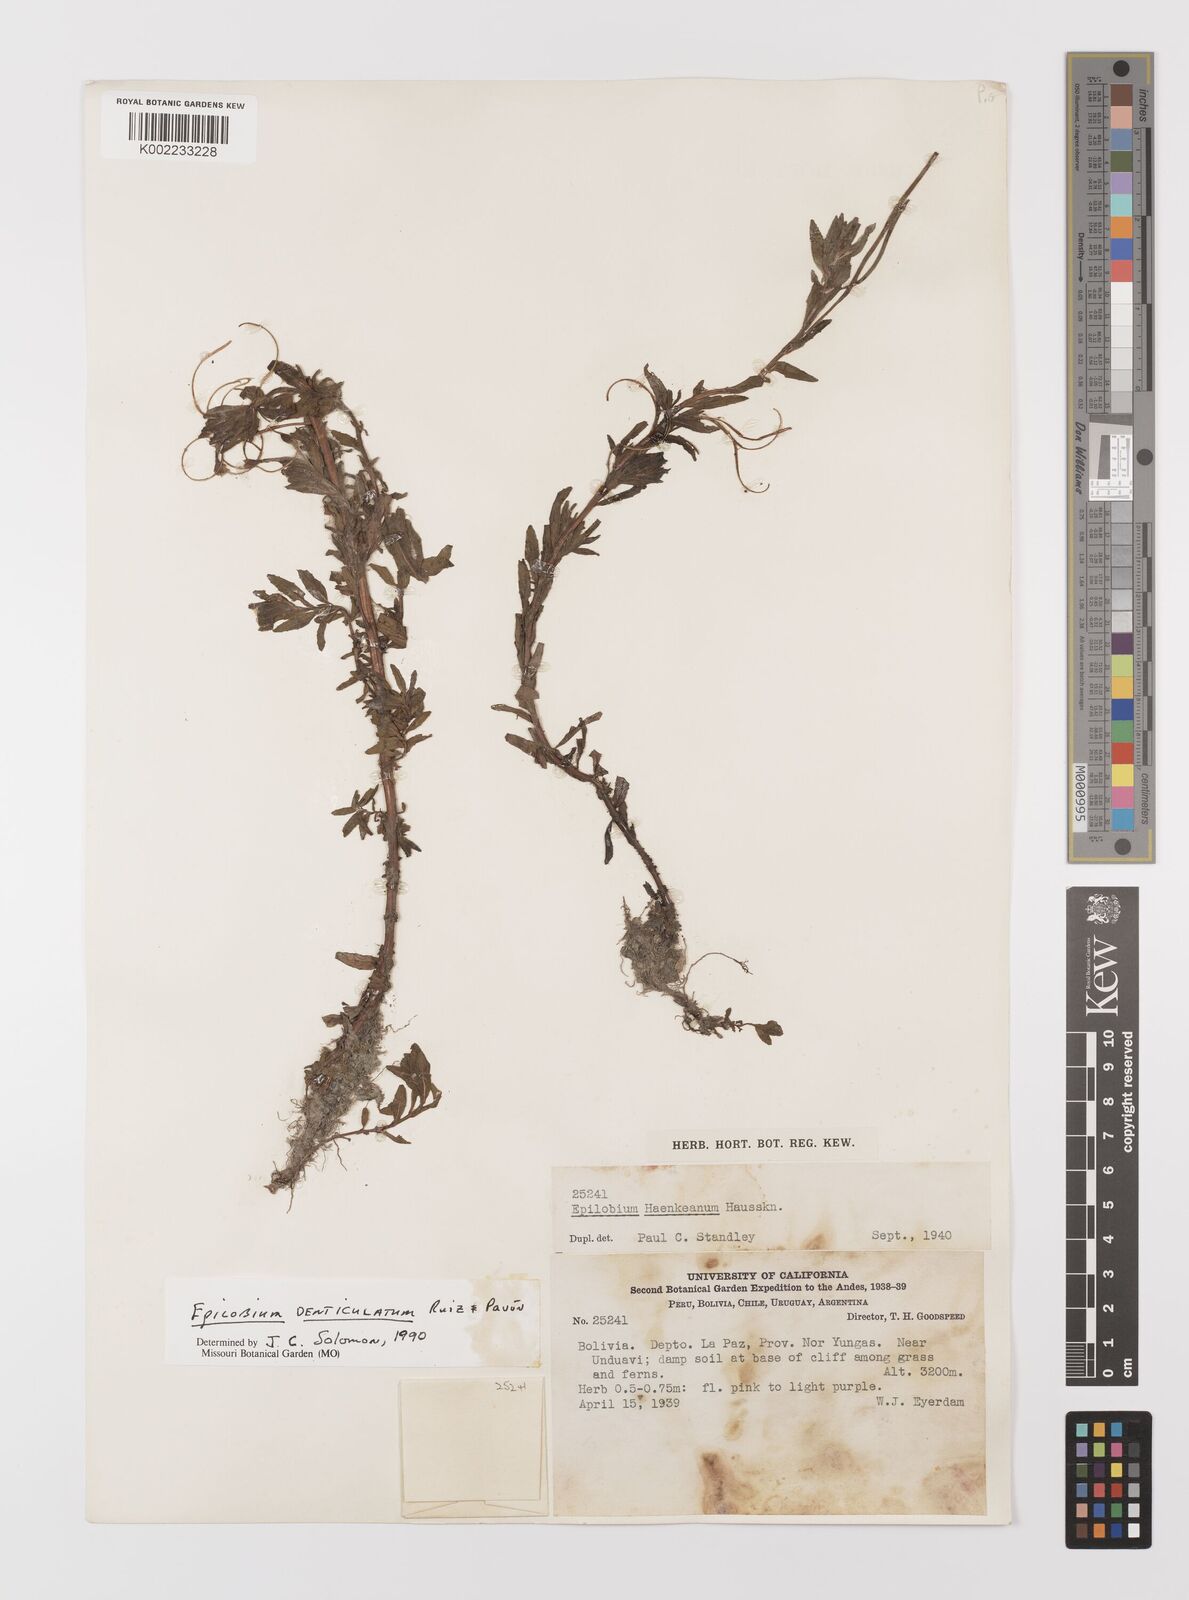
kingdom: Plantae
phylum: Tracheophyta
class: Magnoliopsida
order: Myrtales
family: Onagraceae
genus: Epilobium
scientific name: Epilobium denticulatum
